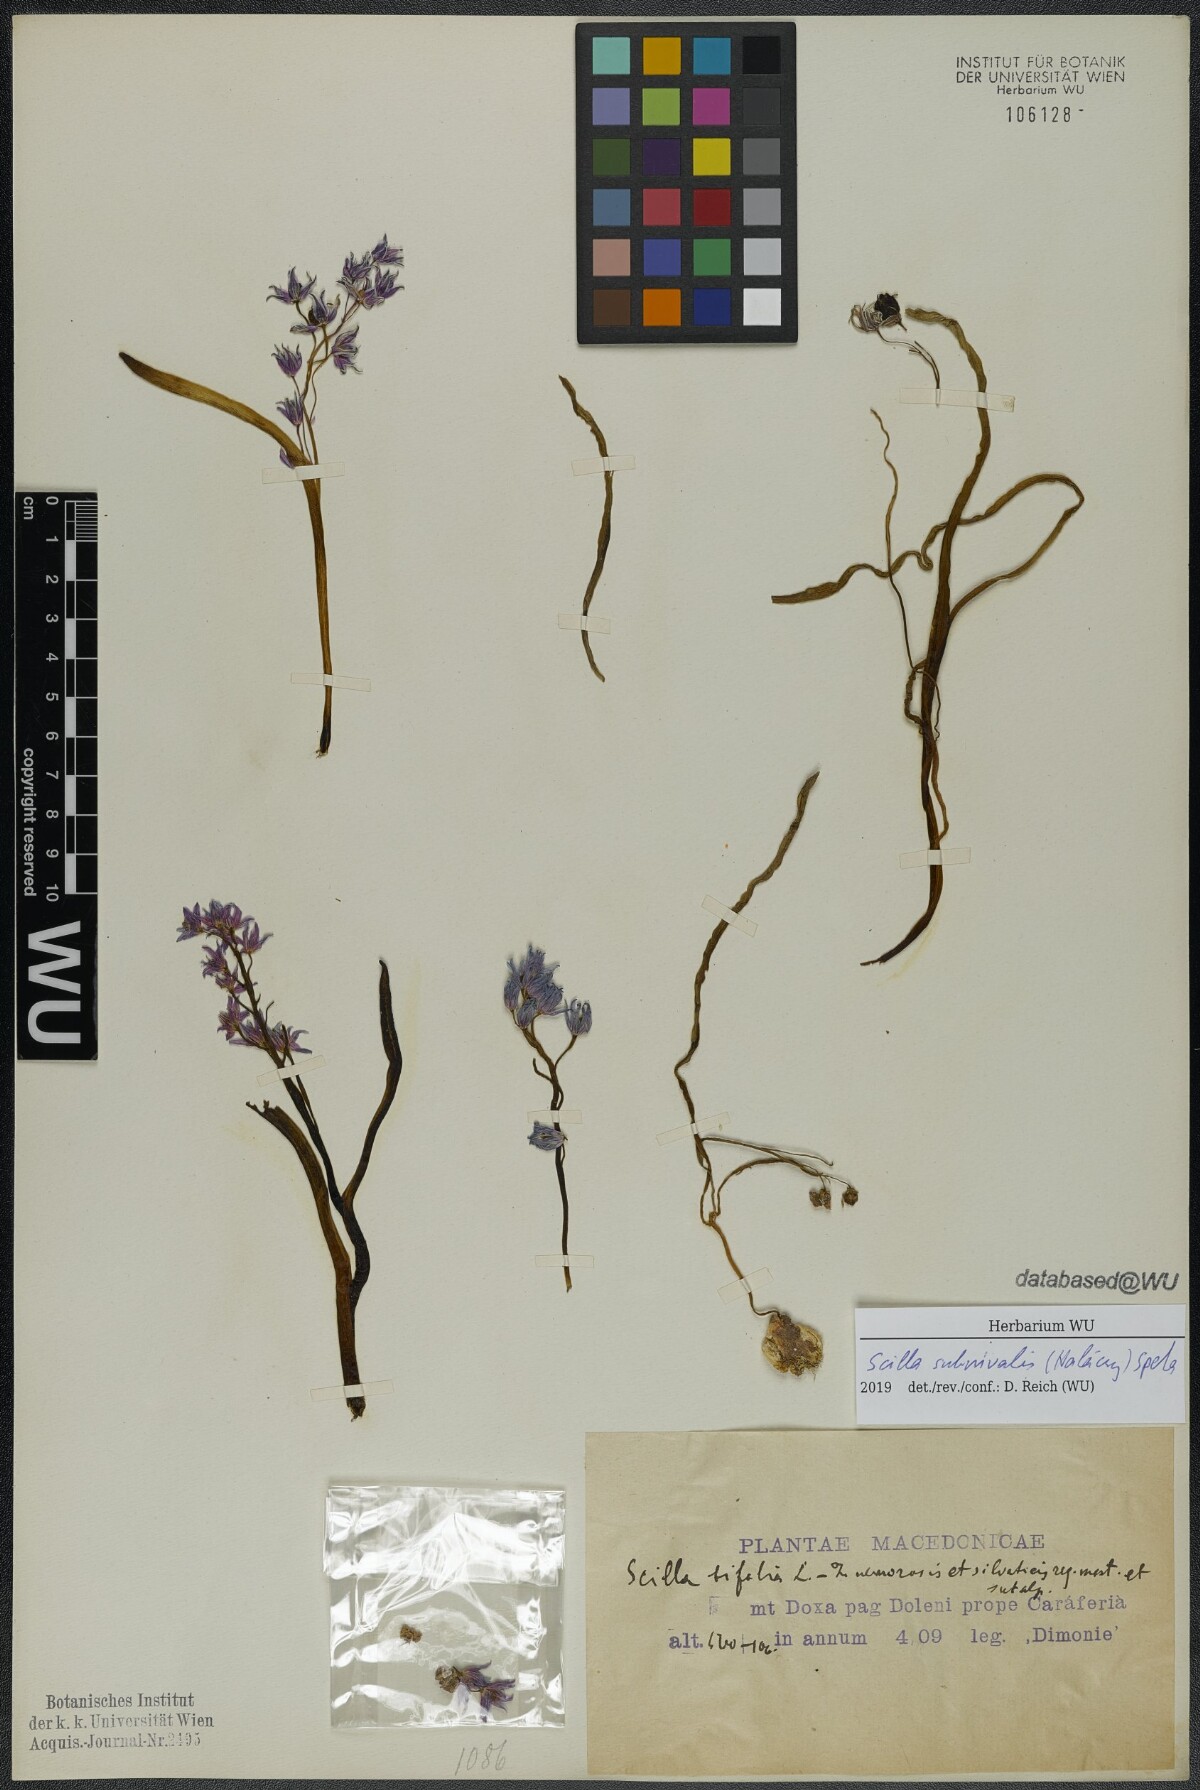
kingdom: Plantae
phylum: Tracheophyta
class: Liliopsida
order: Asparagales
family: Asparagaceae
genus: Scilla
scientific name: Scilla subnivalis
